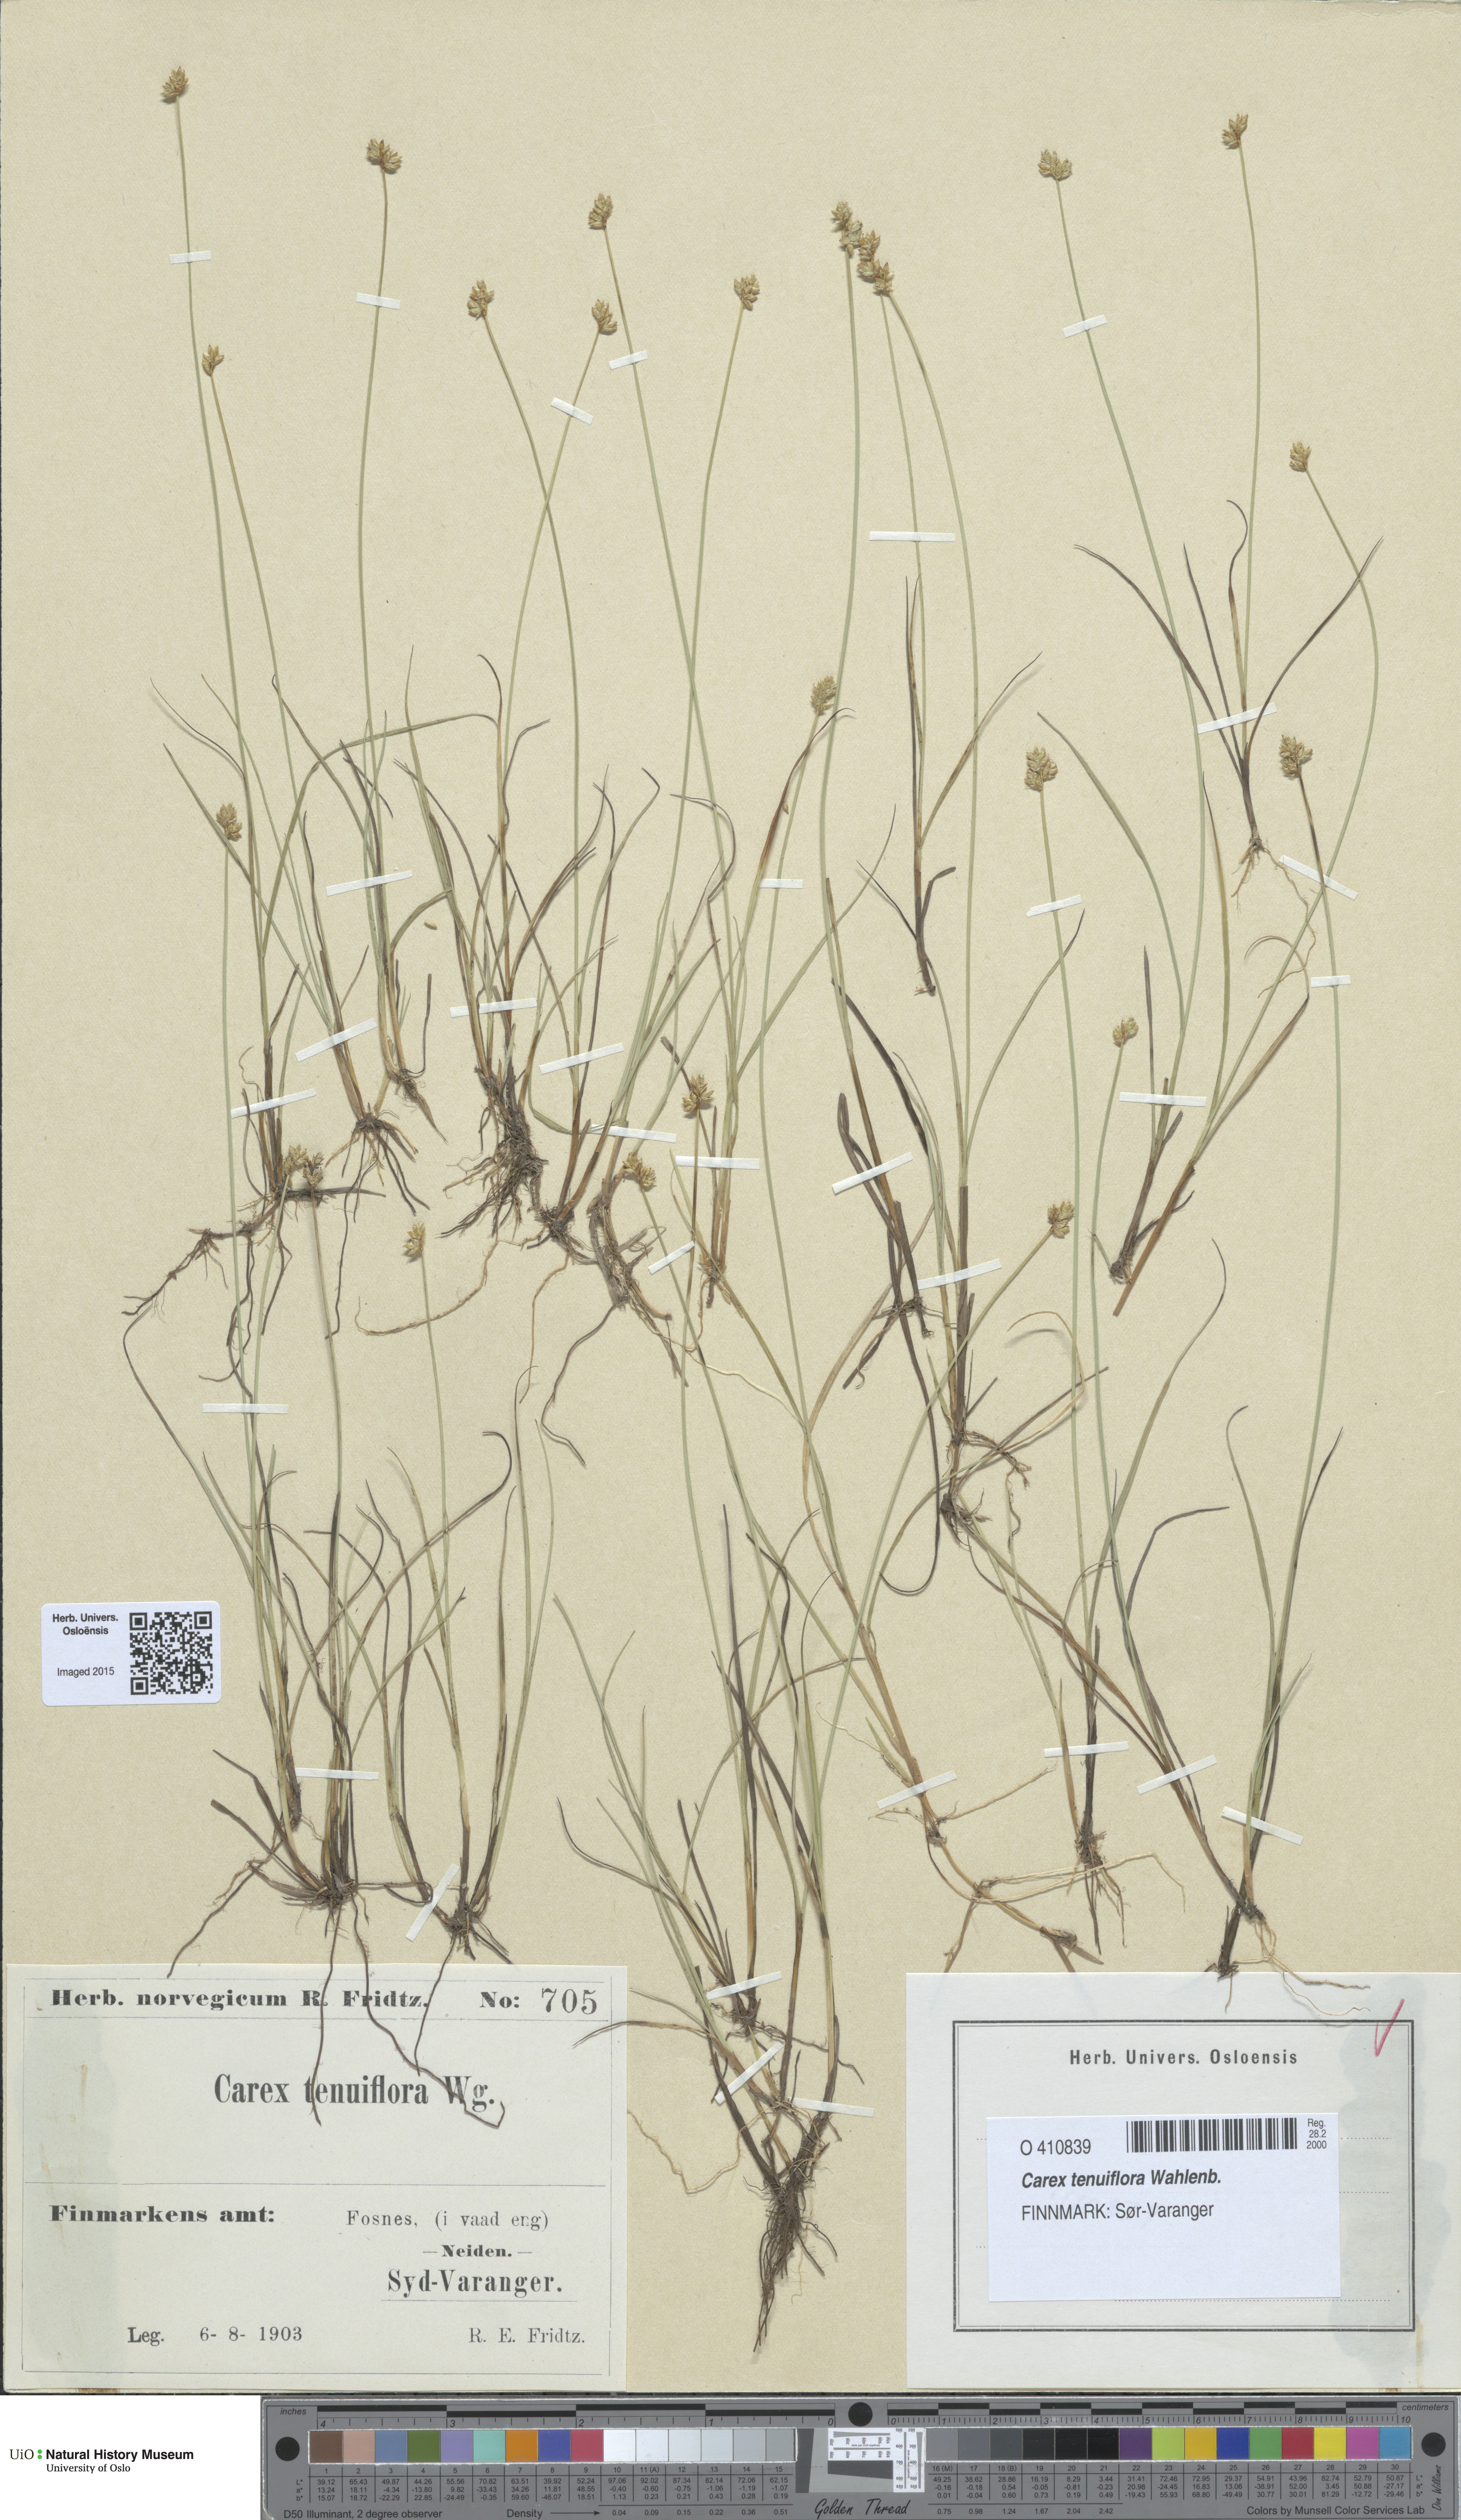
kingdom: Plantae
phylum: Tracheophyta
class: Liliopsida
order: Poales
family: Cyperaceae
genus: Carex
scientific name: Carex tenuiflora
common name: Sparse-flowered sedge
